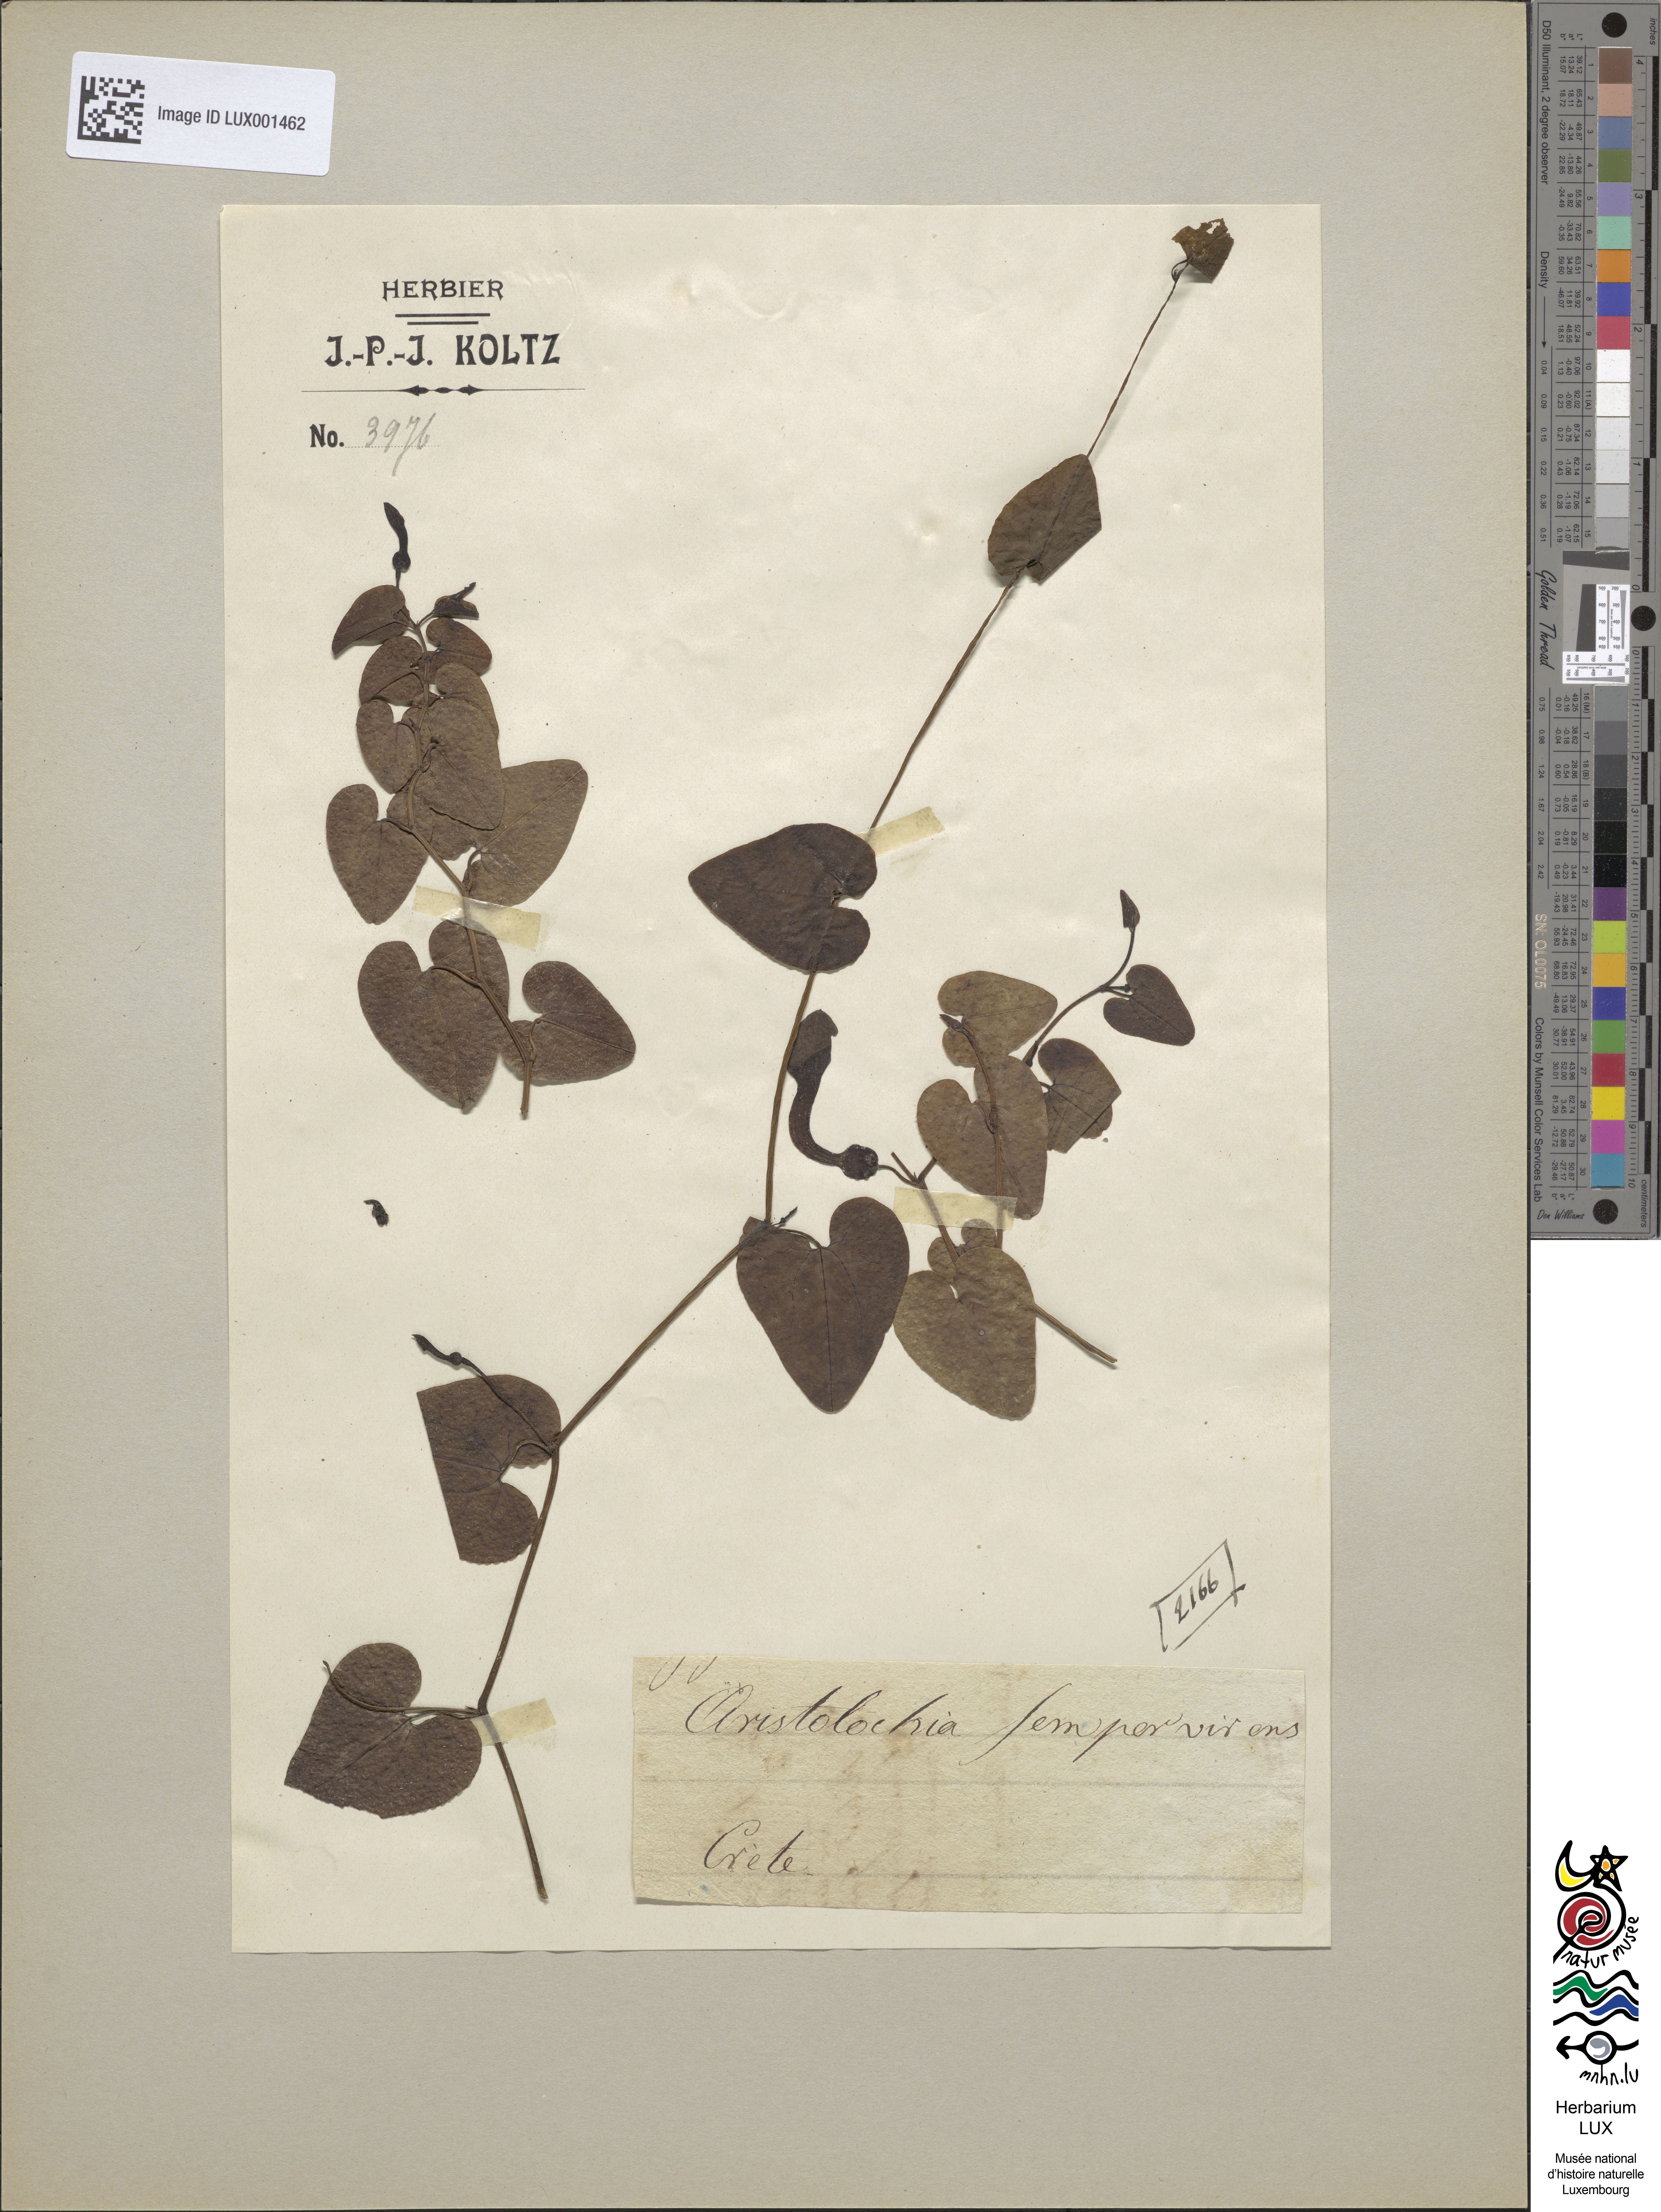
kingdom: Plantae
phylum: Tracheophyta
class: Magnoliopsida
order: Piperales
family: Aristolochiaceae
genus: Aristolochia
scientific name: Aristolochia sempervirens
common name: Long birthwort
